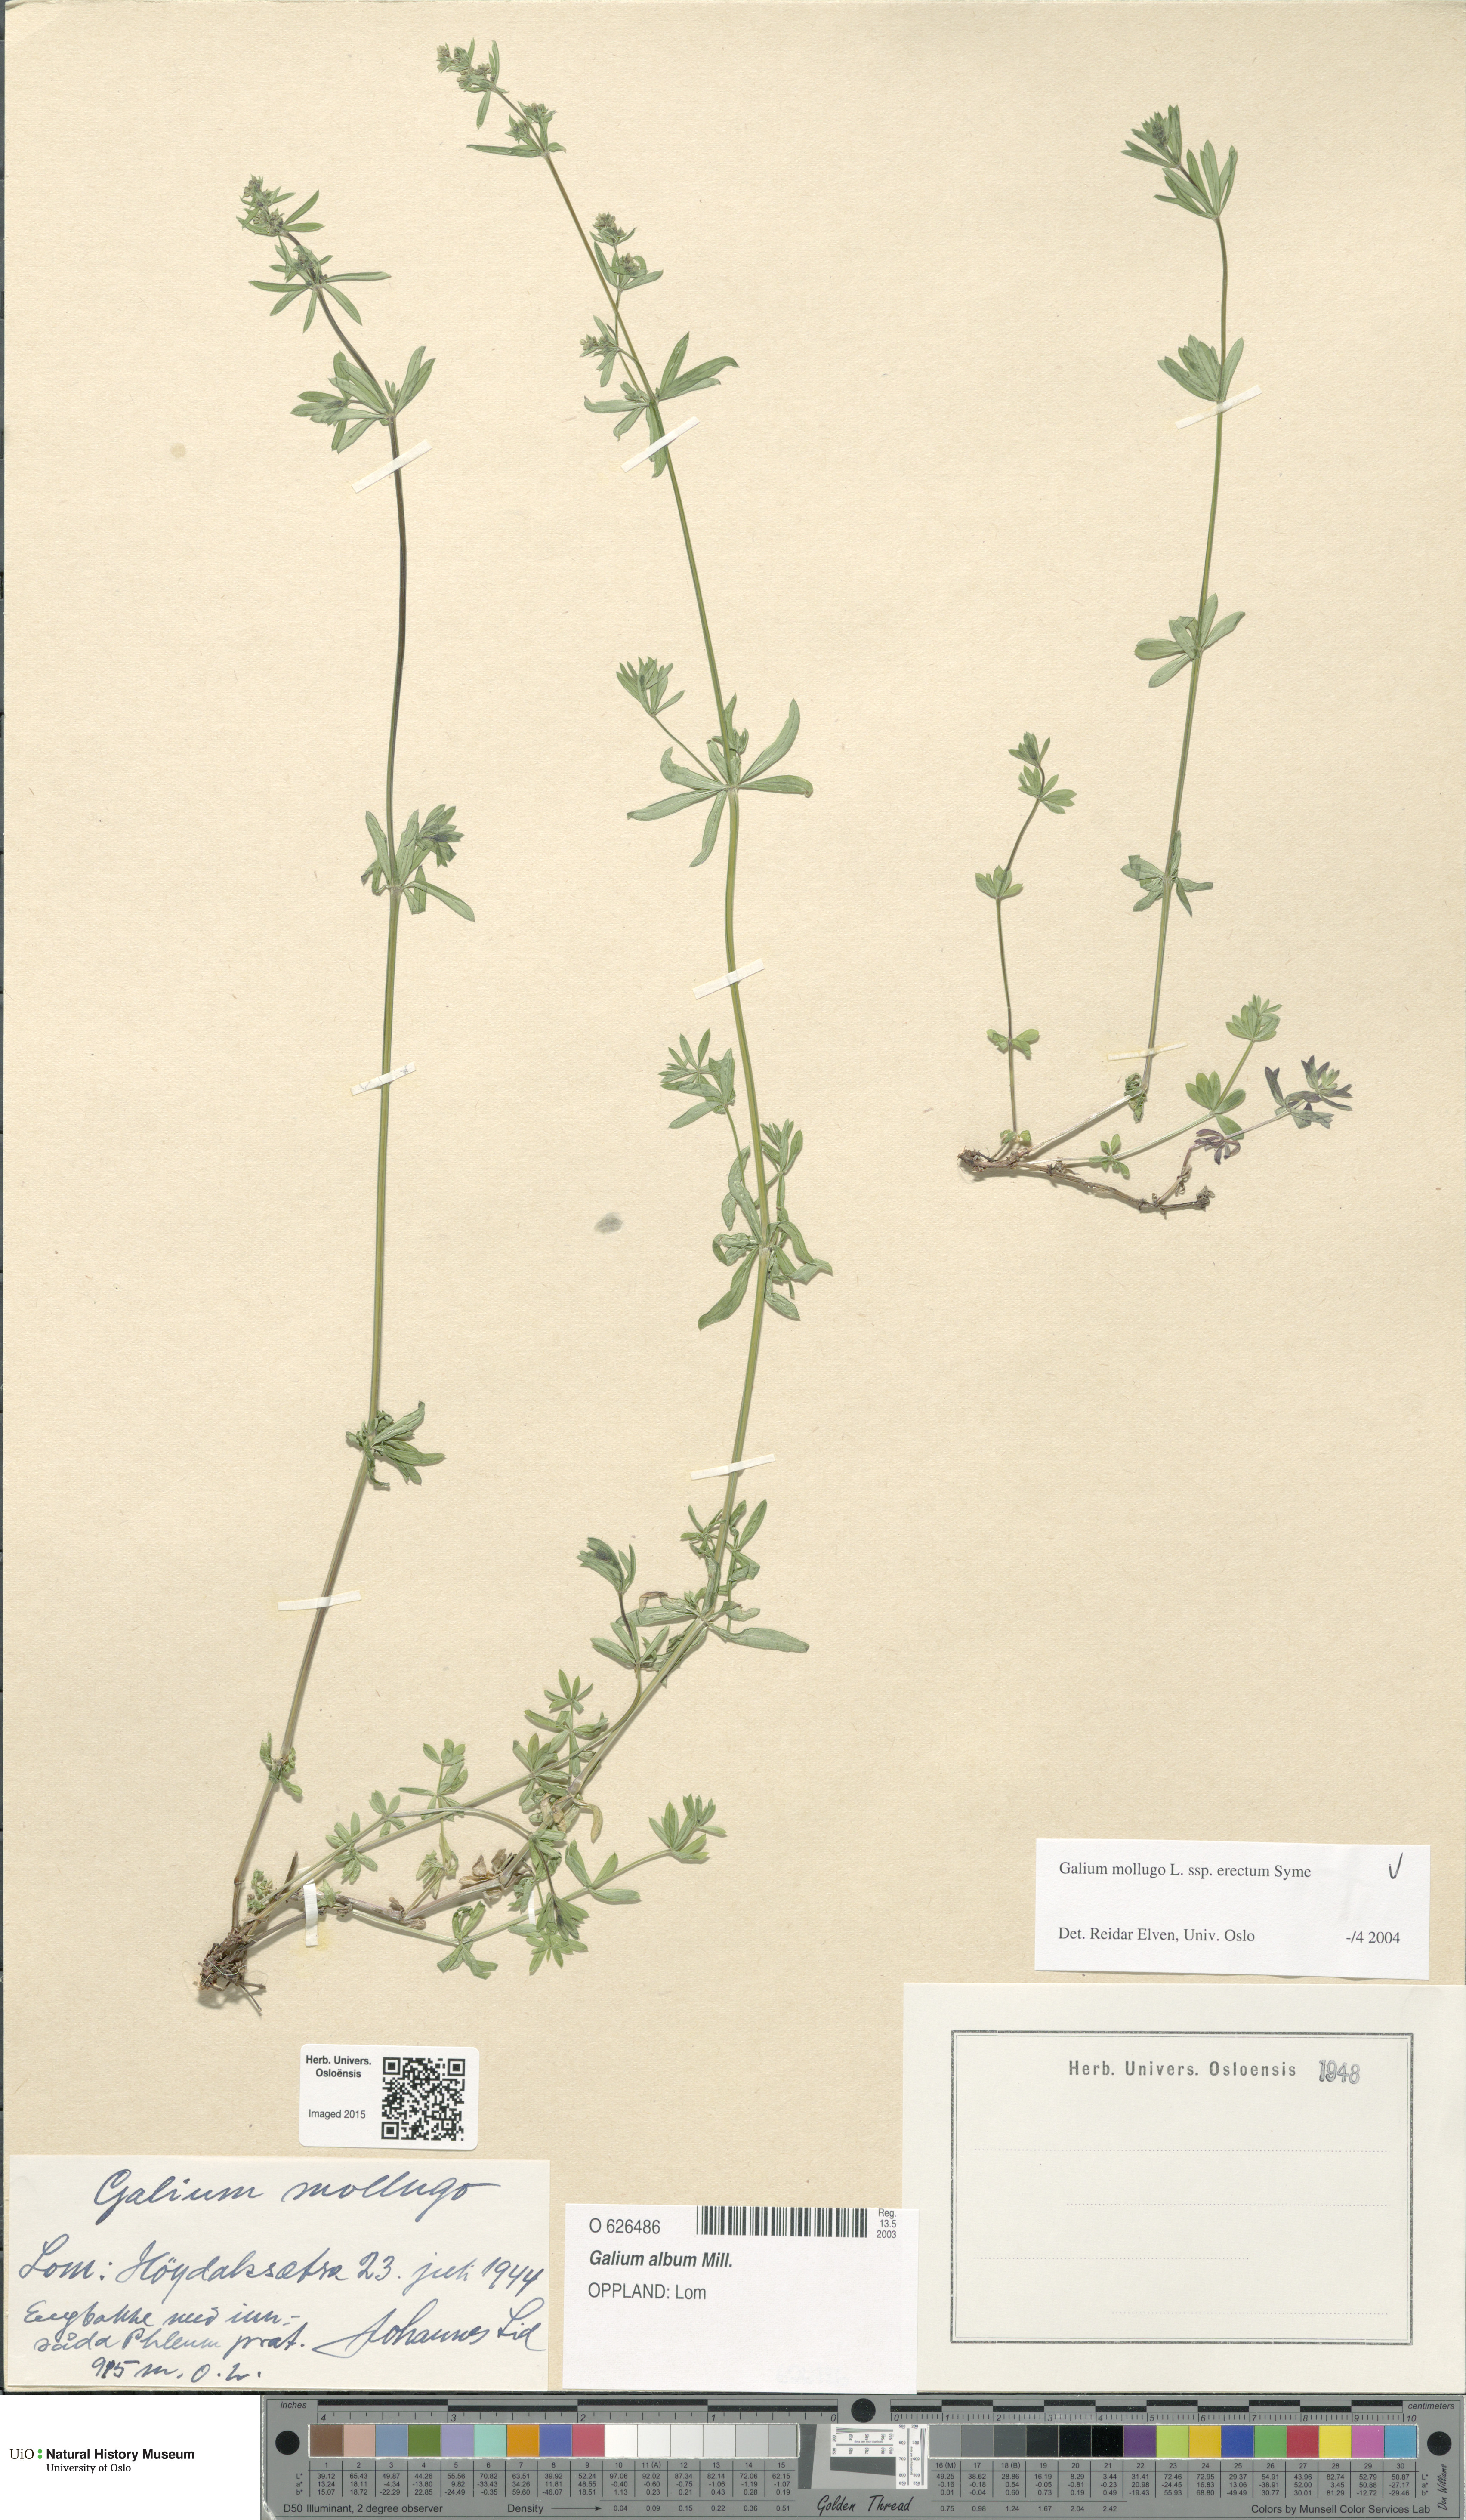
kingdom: Plantae
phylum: Tracheophyta
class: Magnoliopsida
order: Gentianales
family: Rubiaceae
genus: Galium
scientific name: Galium album
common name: White bedstraw
